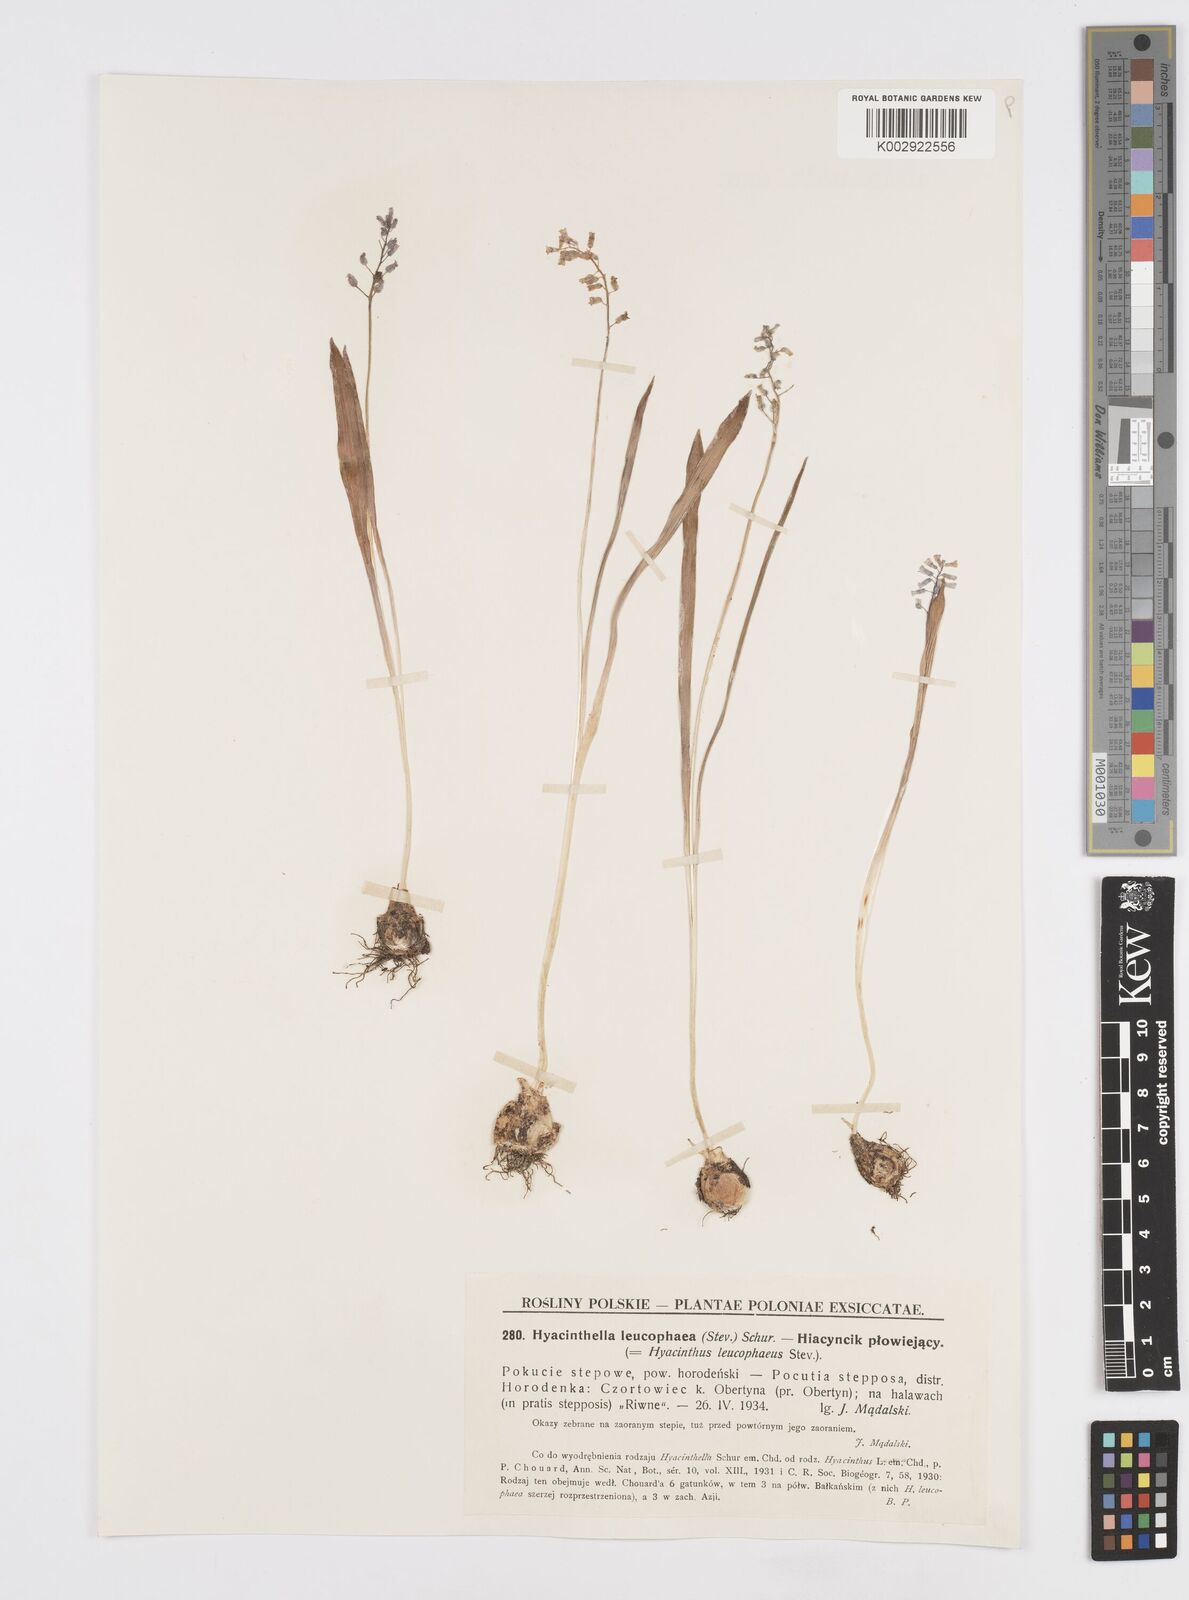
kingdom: Plantae
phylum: Tracheophyta
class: Liliopsida
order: Asparagales
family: Asparagaceae
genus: Hyacinthella
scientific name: Hyacinthella leucophaea
